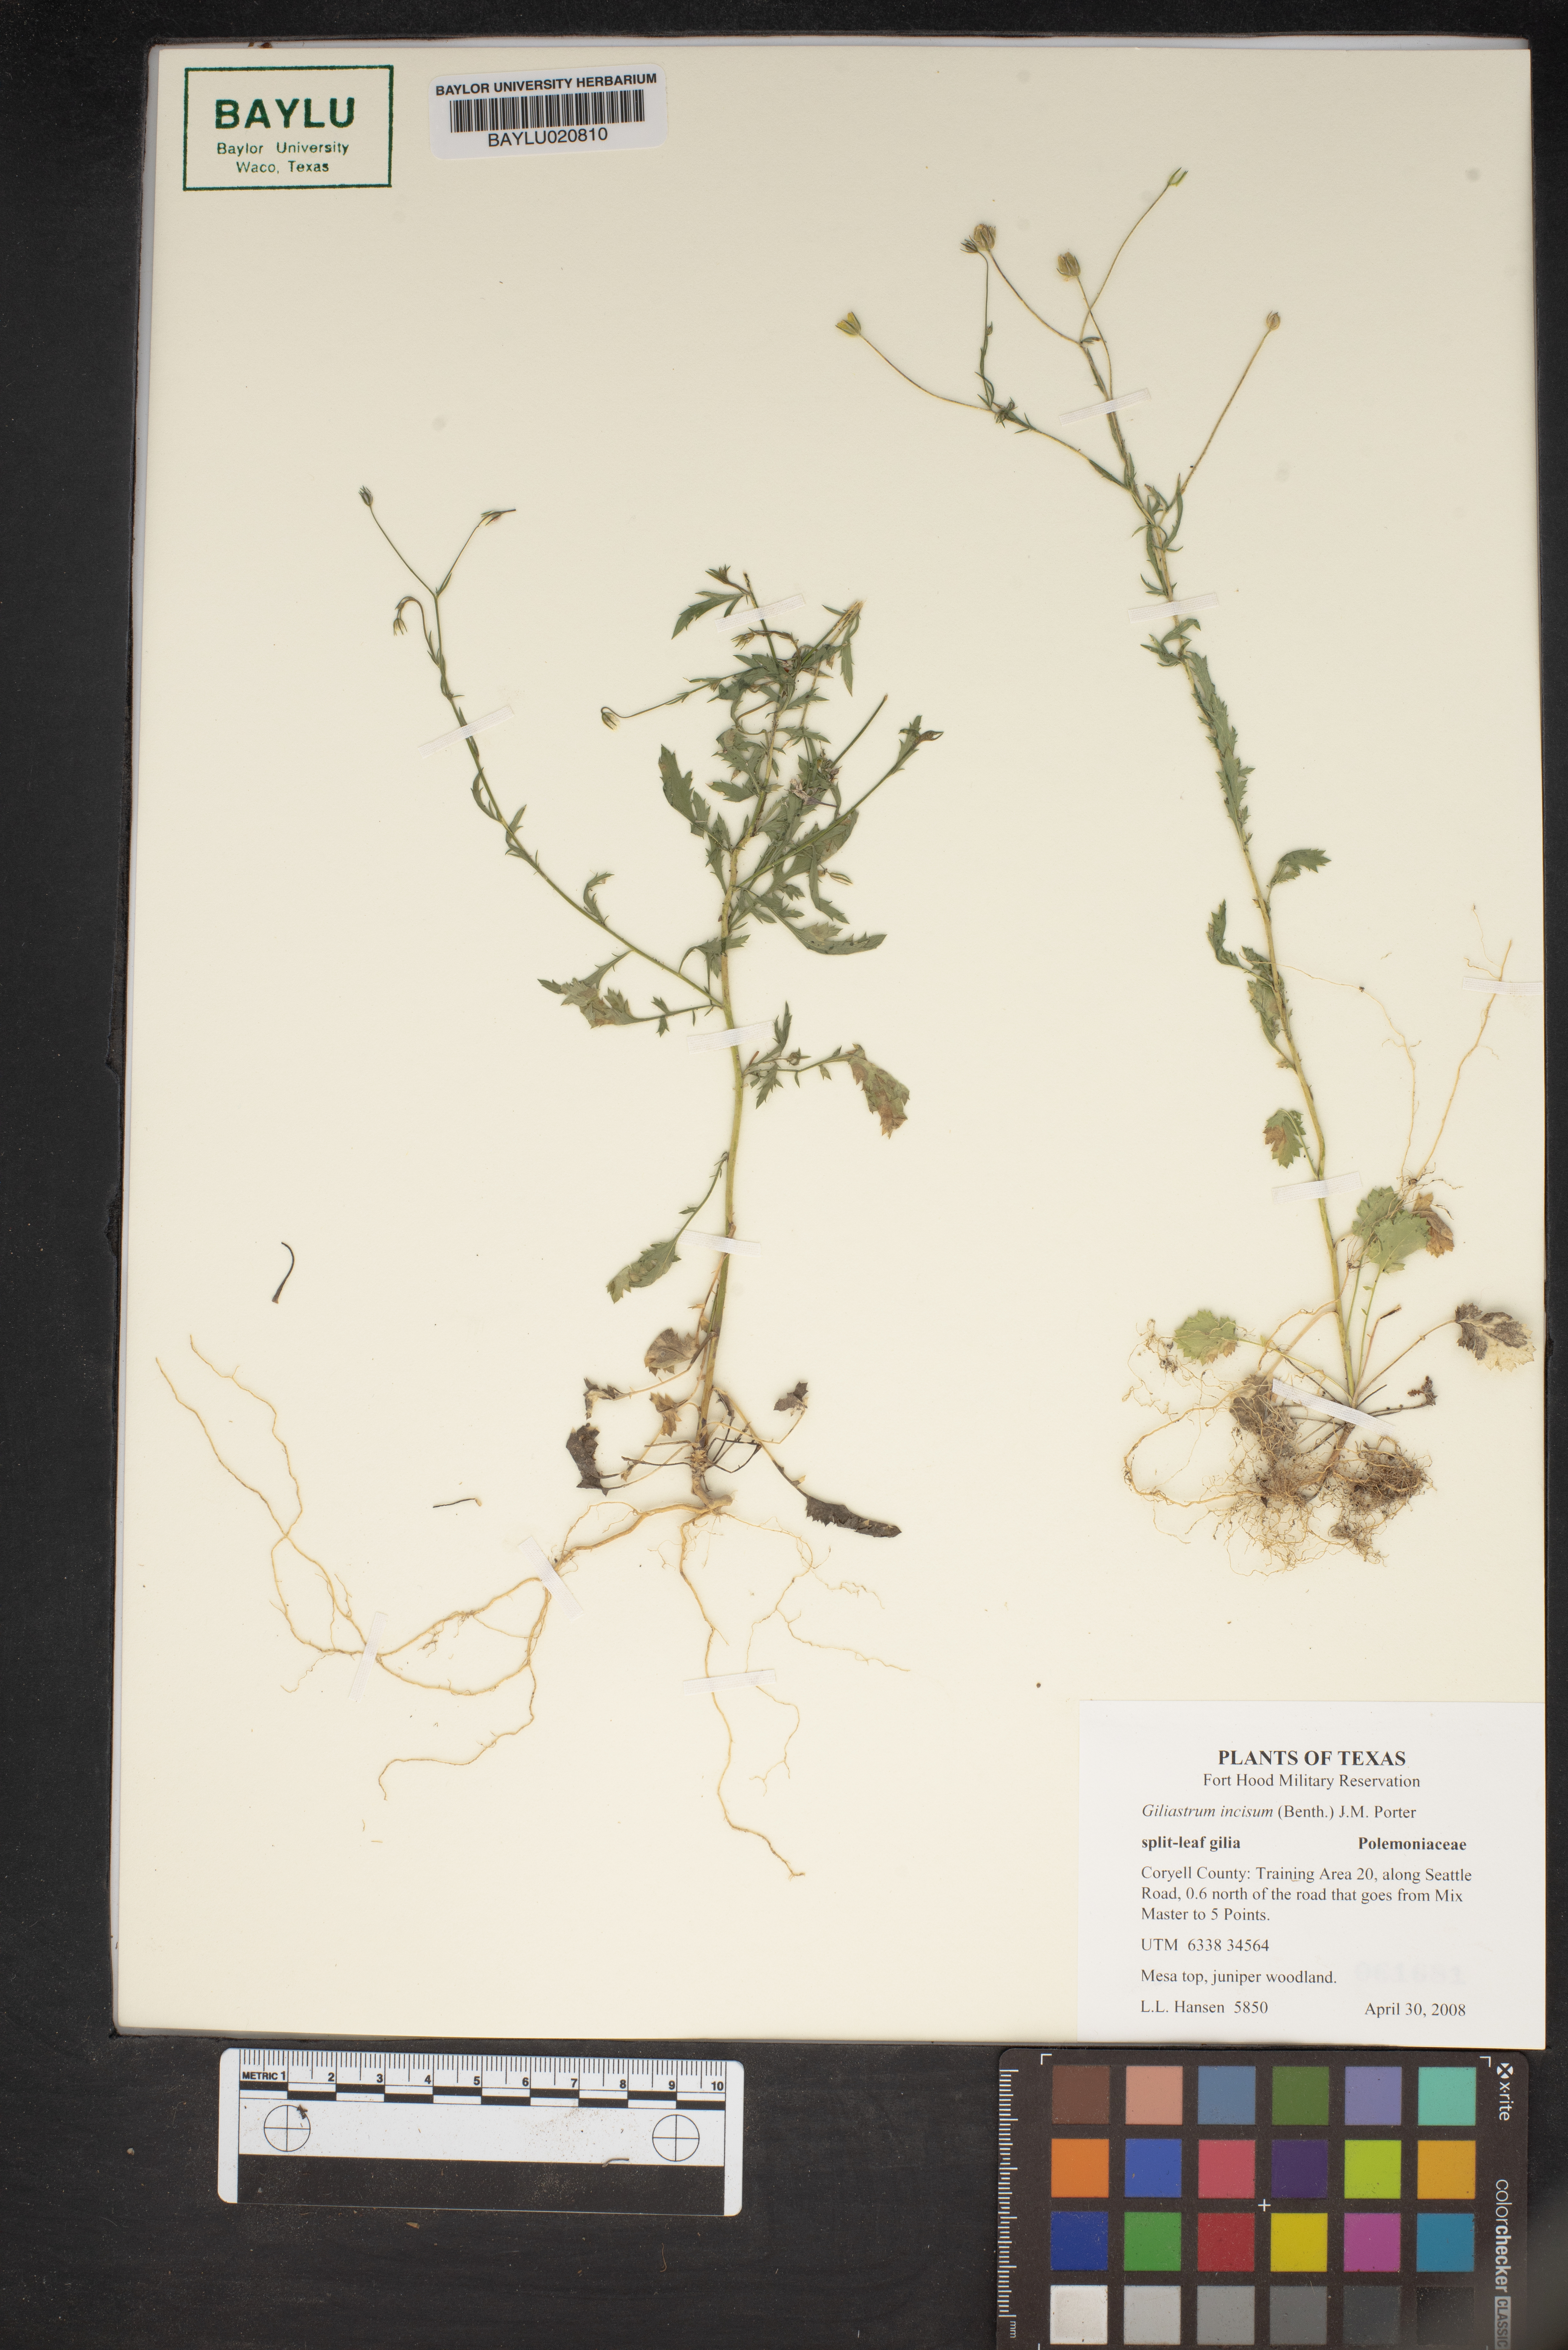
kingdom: Plantae
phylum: Tracheophyta
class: Magnoliopsida
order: Ericales
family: Polemoniaceae
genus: Giliastrum
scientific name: Giliastrum incisum
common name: Splitleaf gilia
